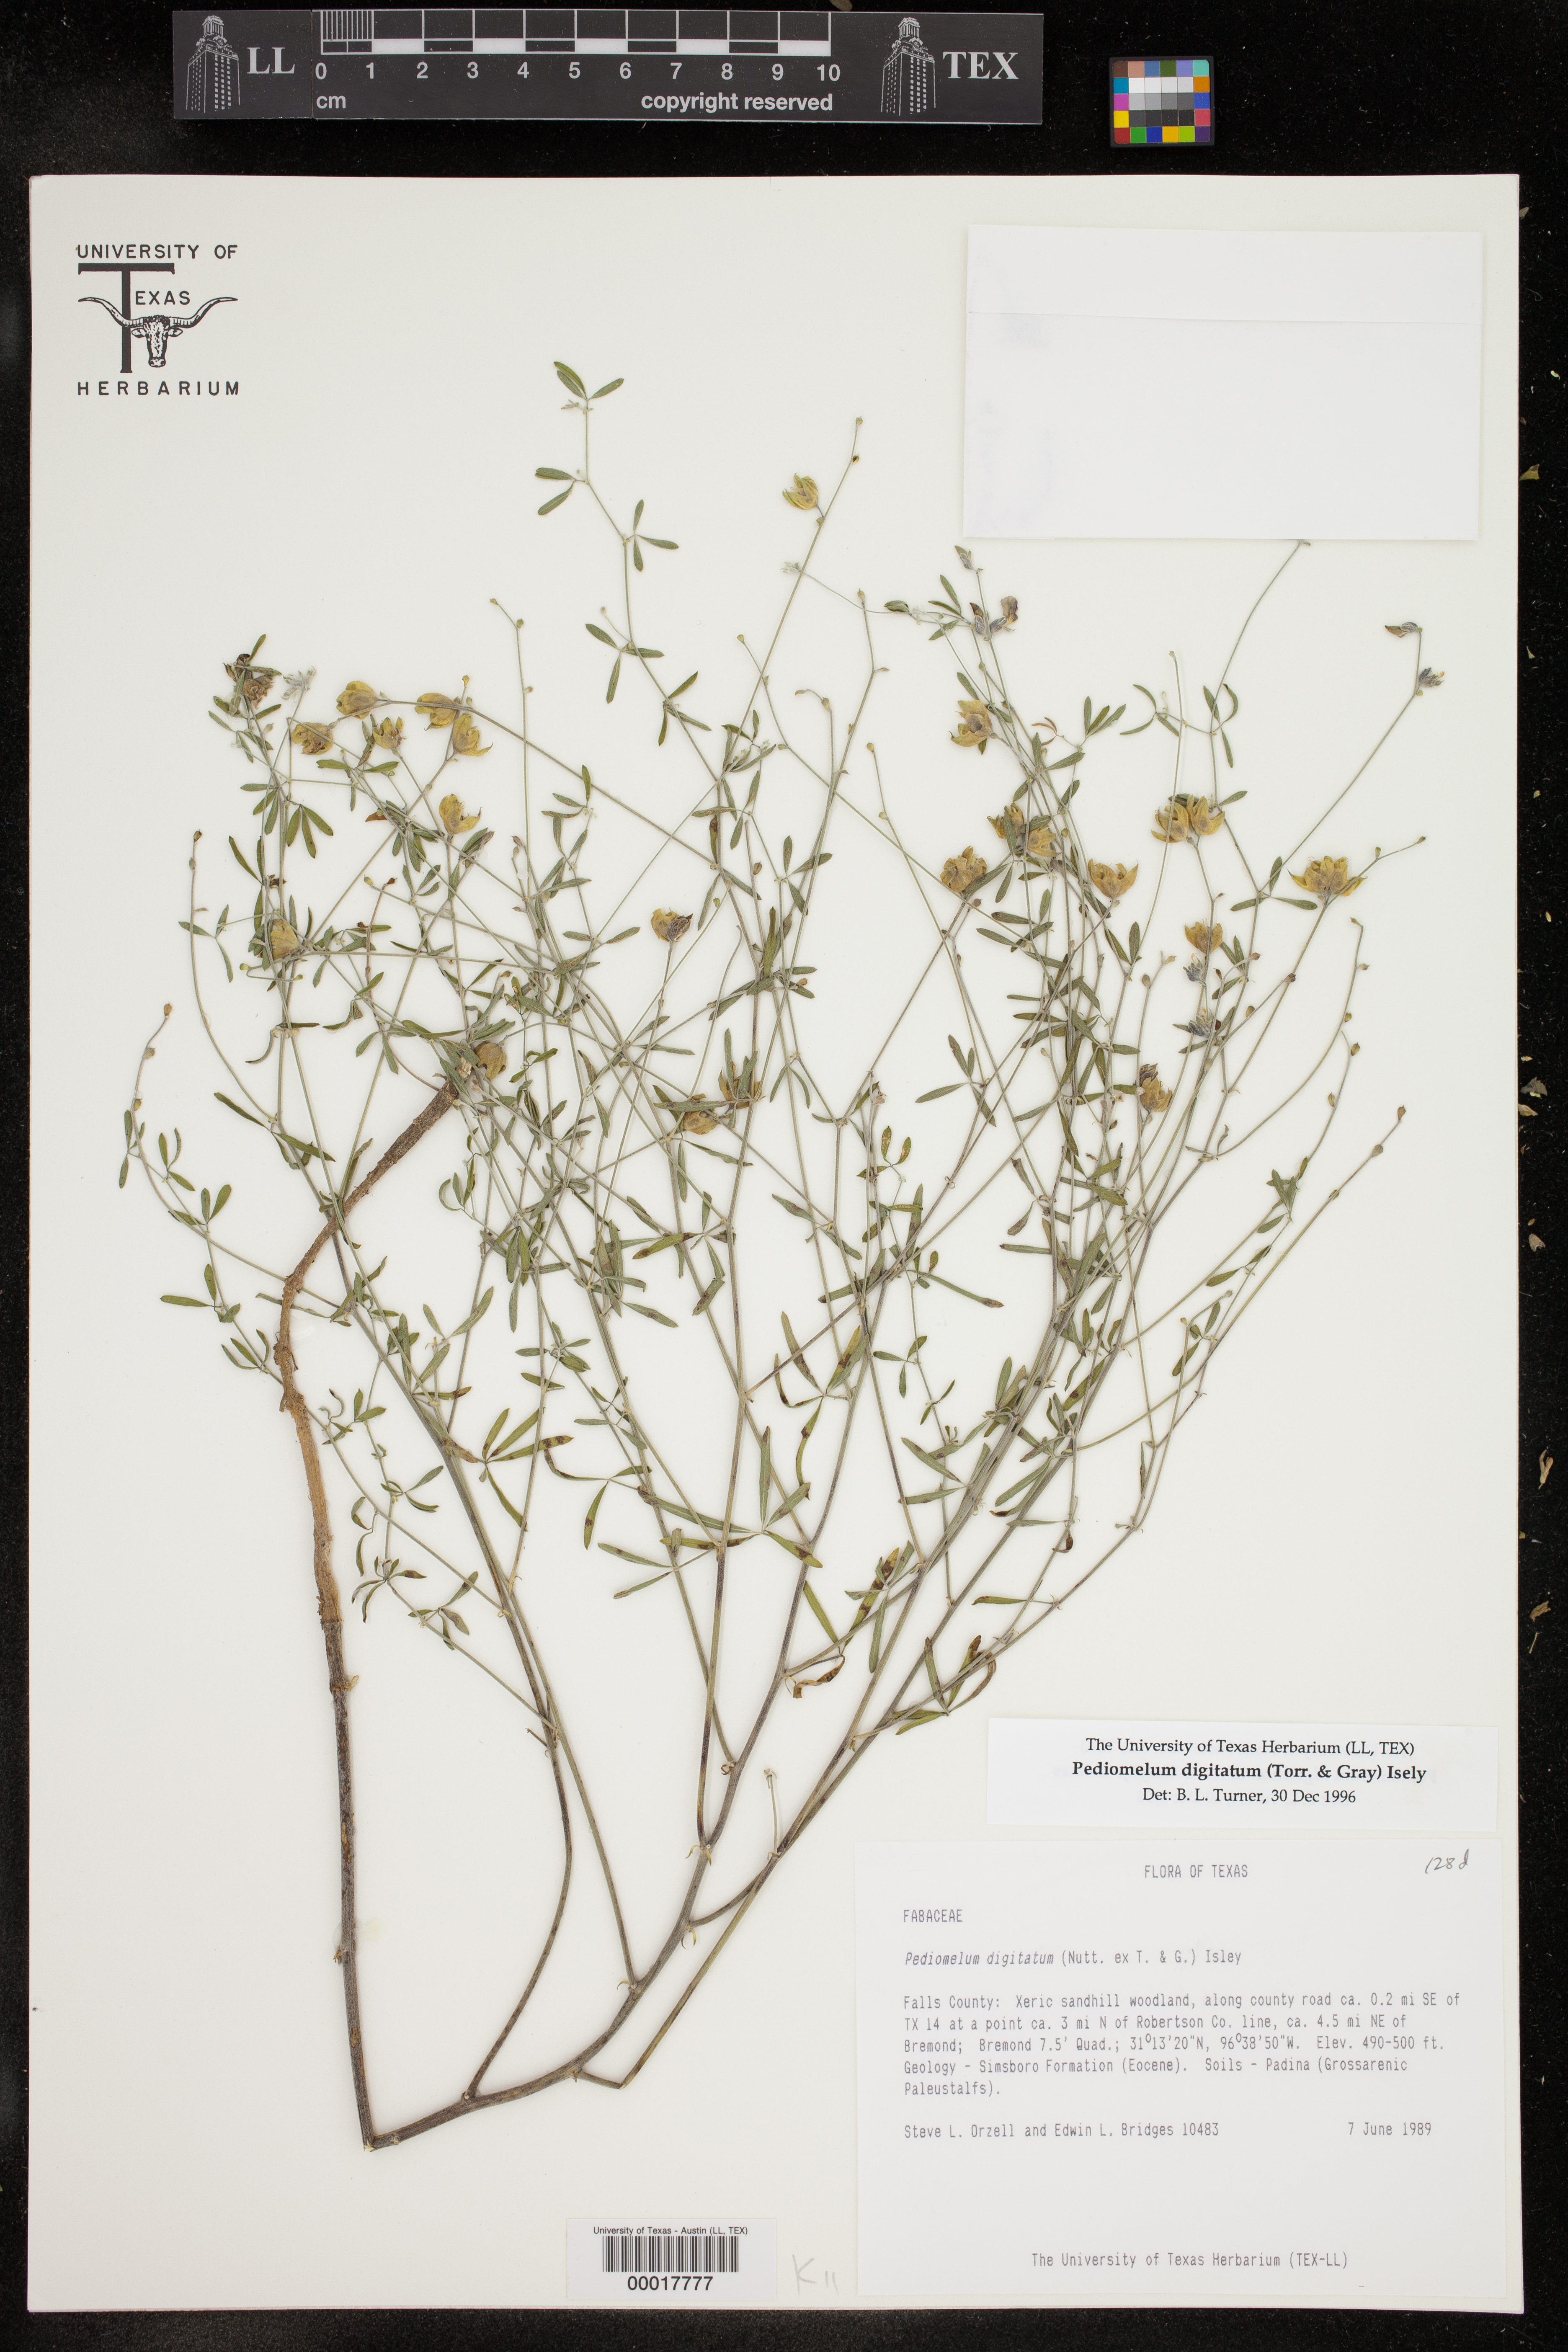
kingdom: Plantae
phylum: Tracheophyta
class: Magnoliopsida
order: Fabales
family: Fabaceae
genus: Pediomelum
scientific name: Pediomelum digitatum
